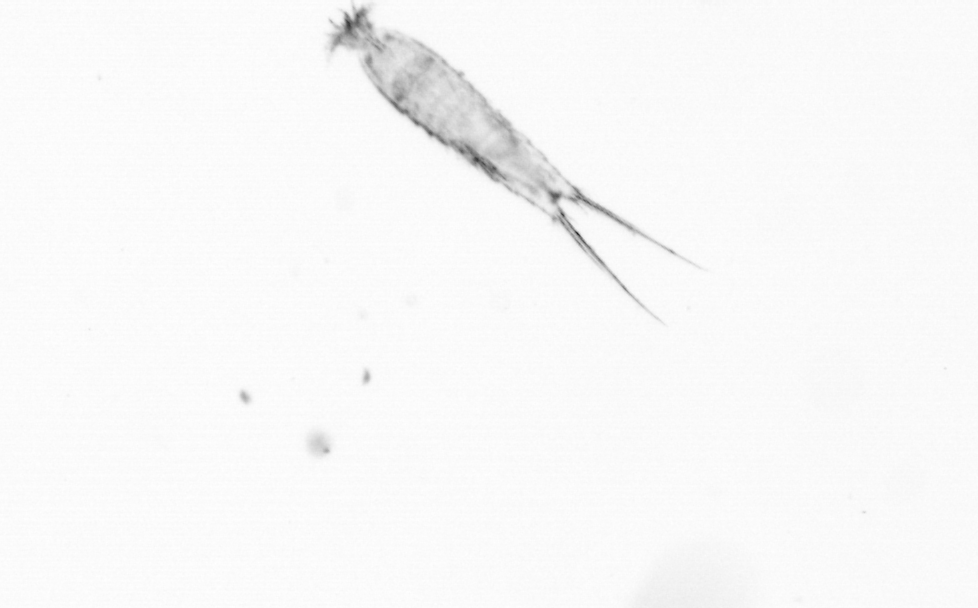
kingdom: Animalia
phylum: Arthropoda
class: Copepoda
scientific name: Copepoda
